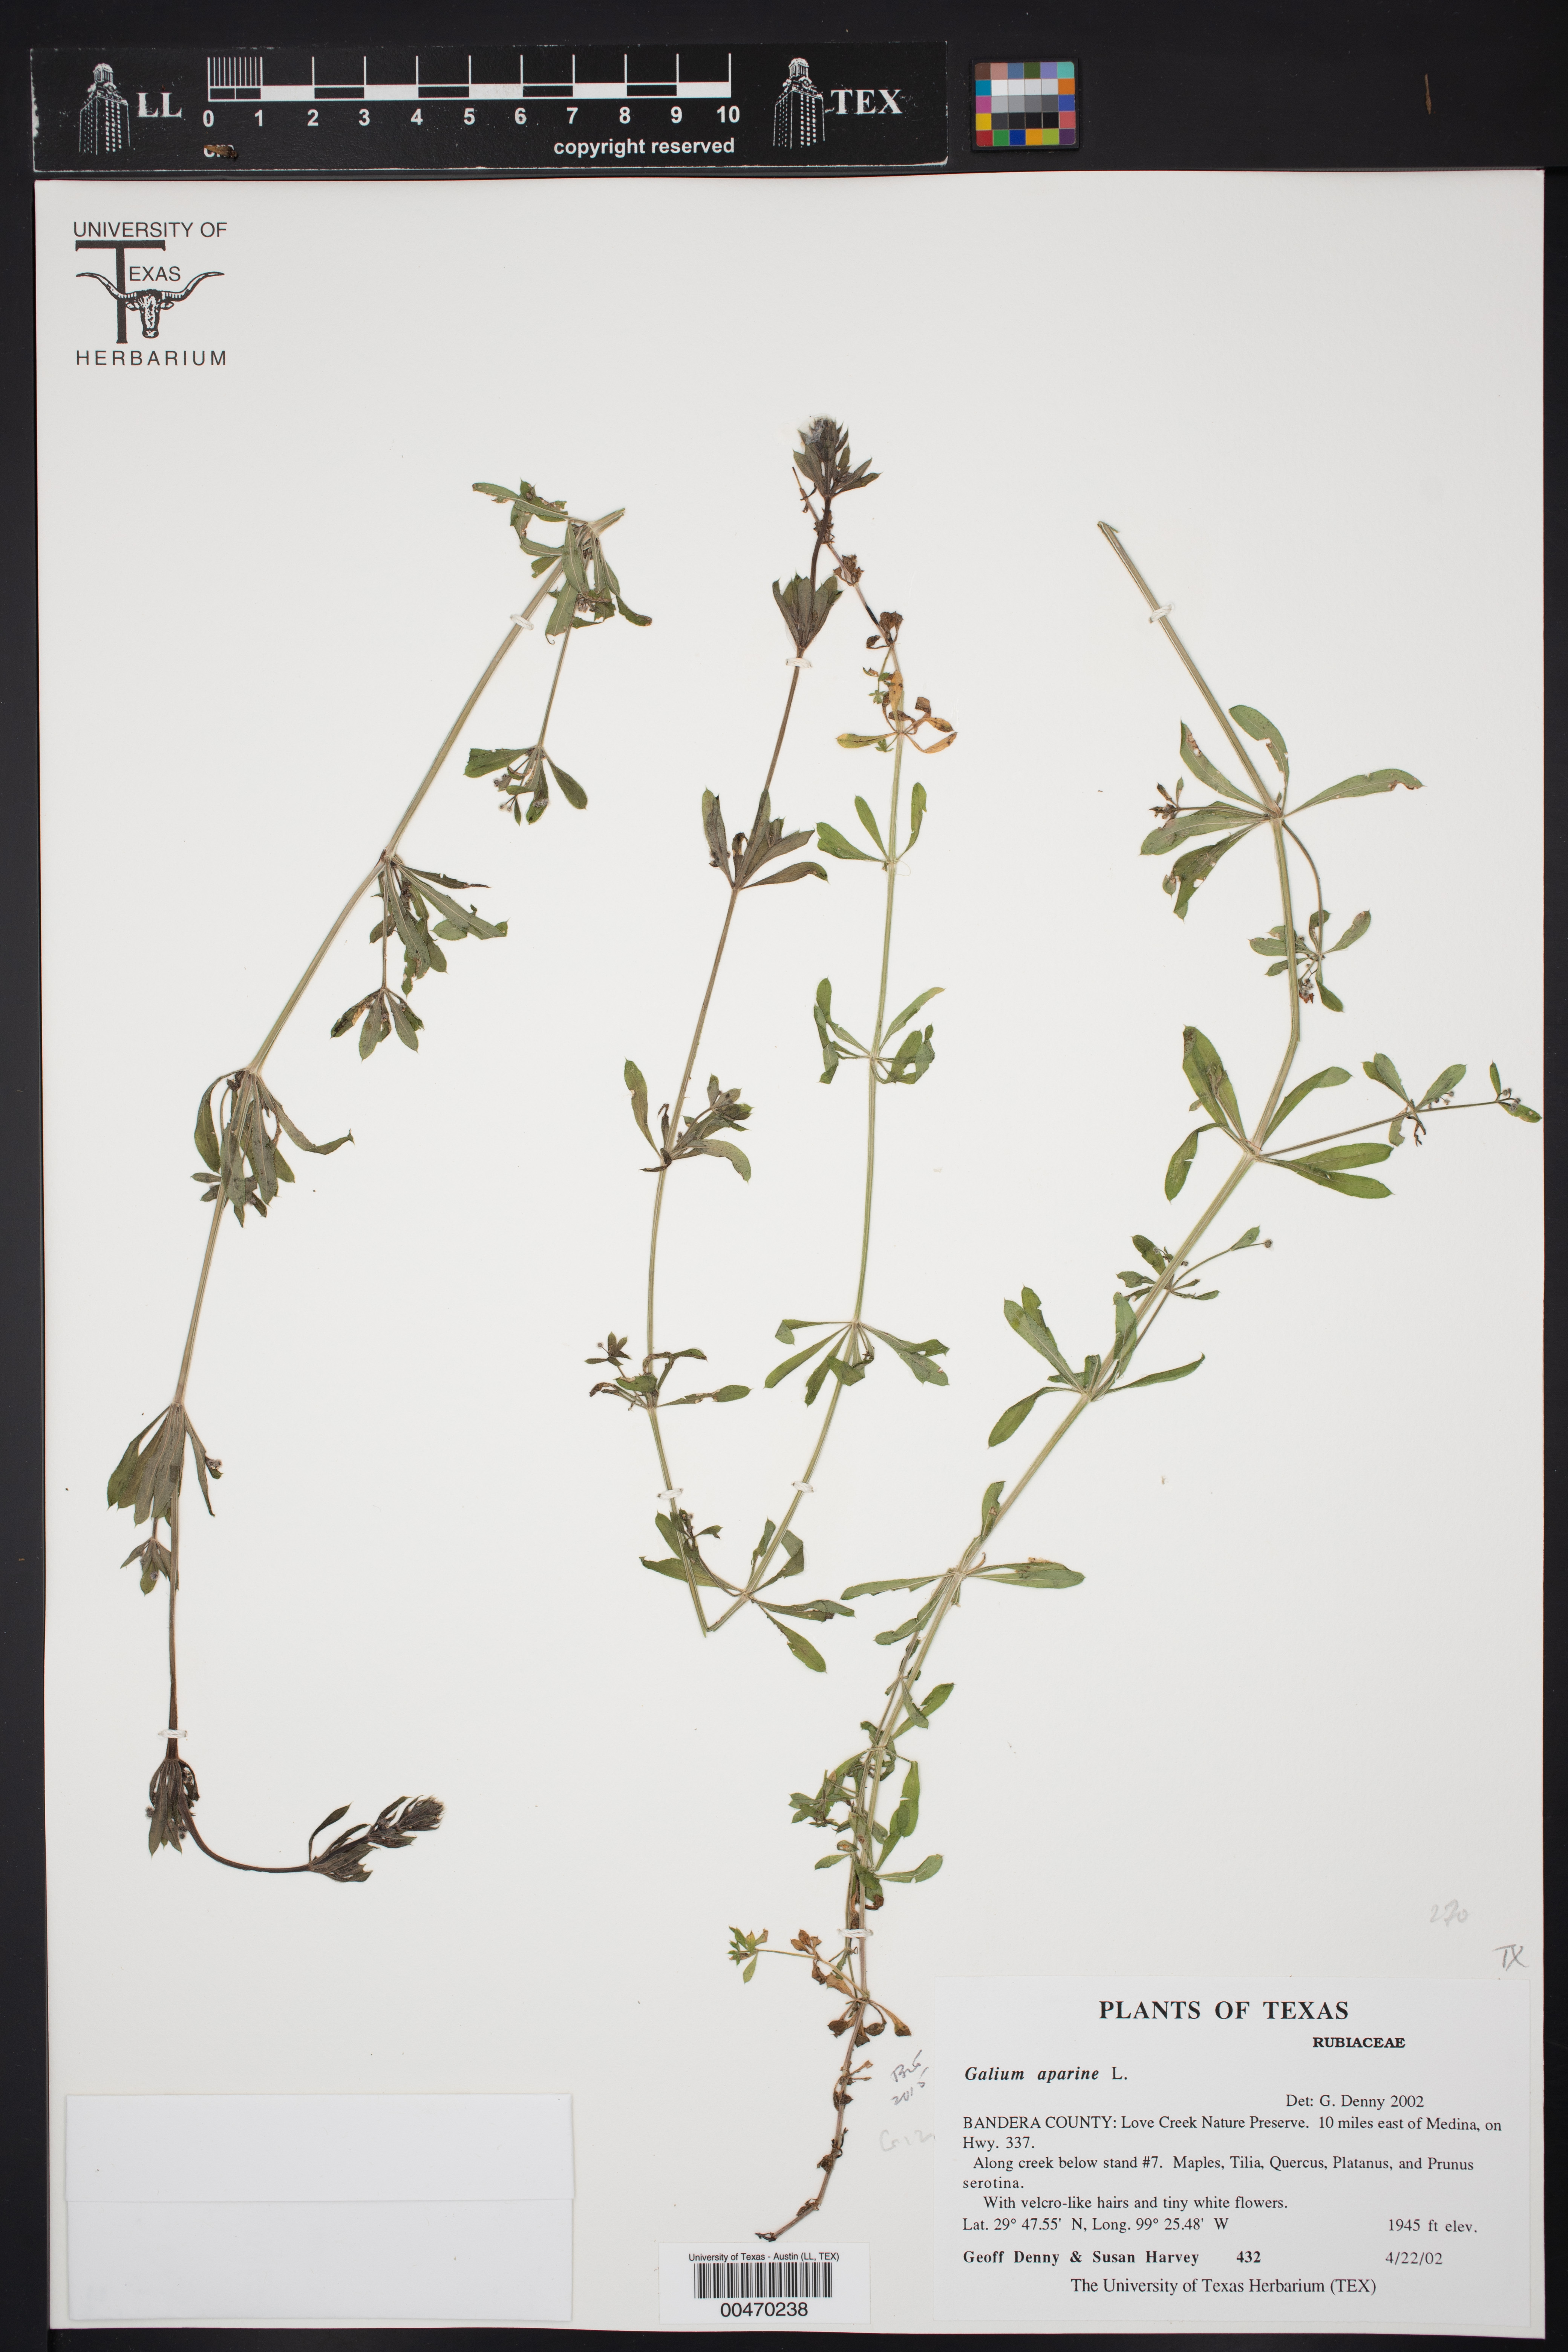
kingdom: Plantae
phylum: Tracheophyta
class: Magnoliopsida
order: Gentianales
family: Rubiaceae
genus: Galium
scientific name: Galium aparine
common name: Cleavers
